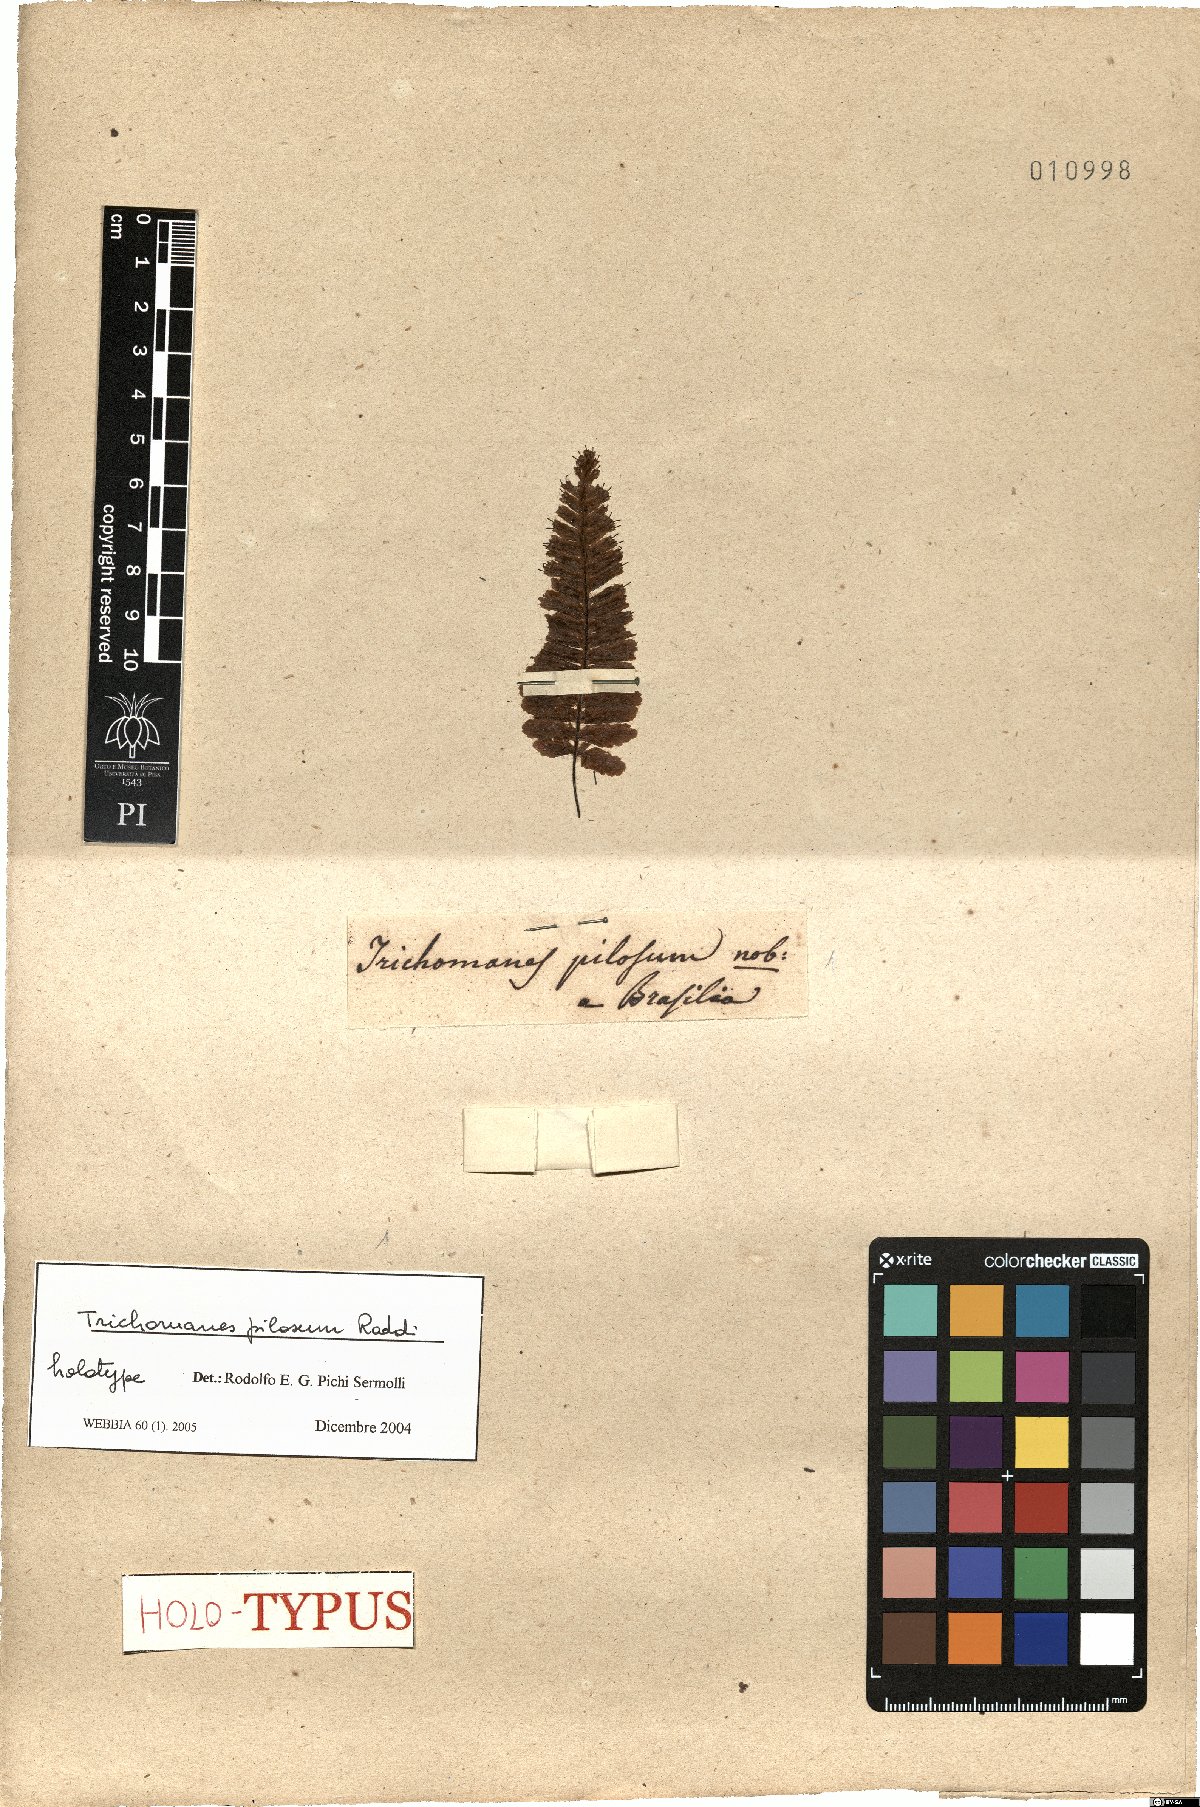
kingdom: Plantae
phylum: Tracheophyta
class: Polypodiopsida
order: Hymenophyllales
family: Hymenophyllaceae
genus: Trichomanes
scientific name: Trichomanes pilosum
